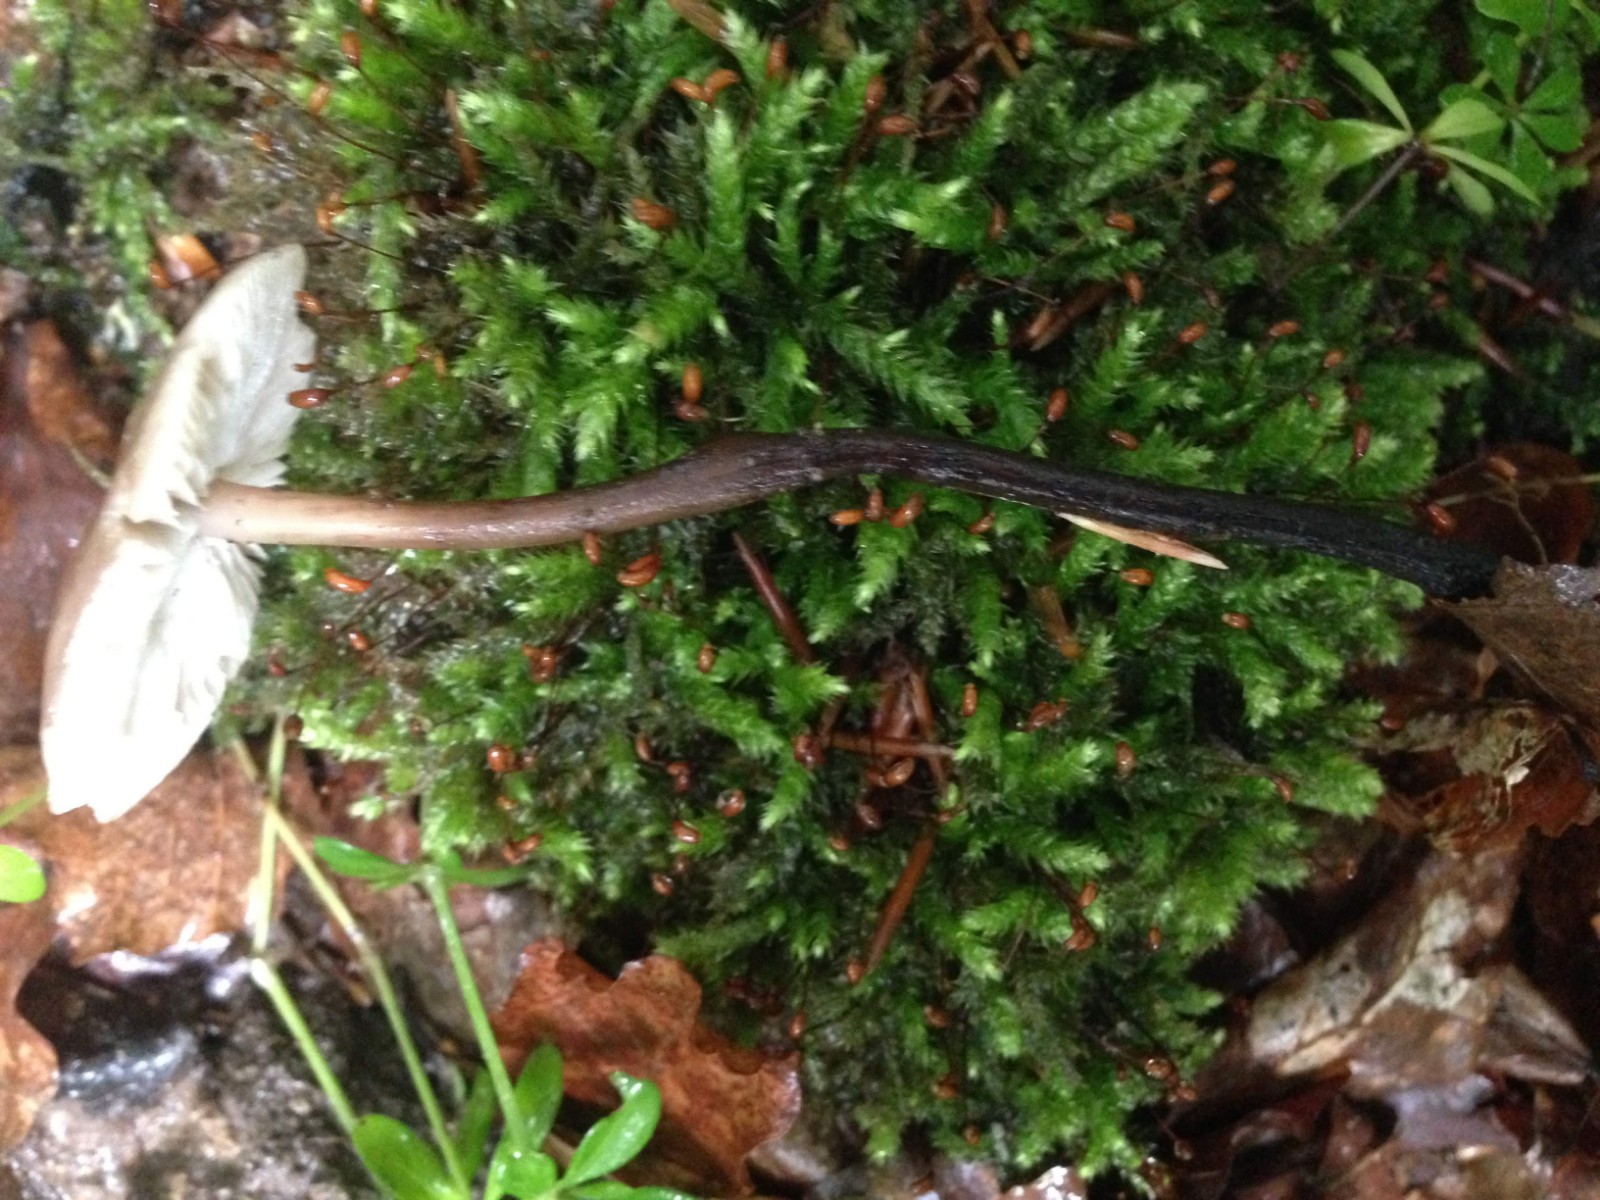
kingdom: Fungi
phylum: Basidiomycota
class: Agaricomycetes
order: Agaricales
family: Omphalotaceae
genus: Mycetinis
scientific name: Mycetinis alliaceus
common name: stor løghat
